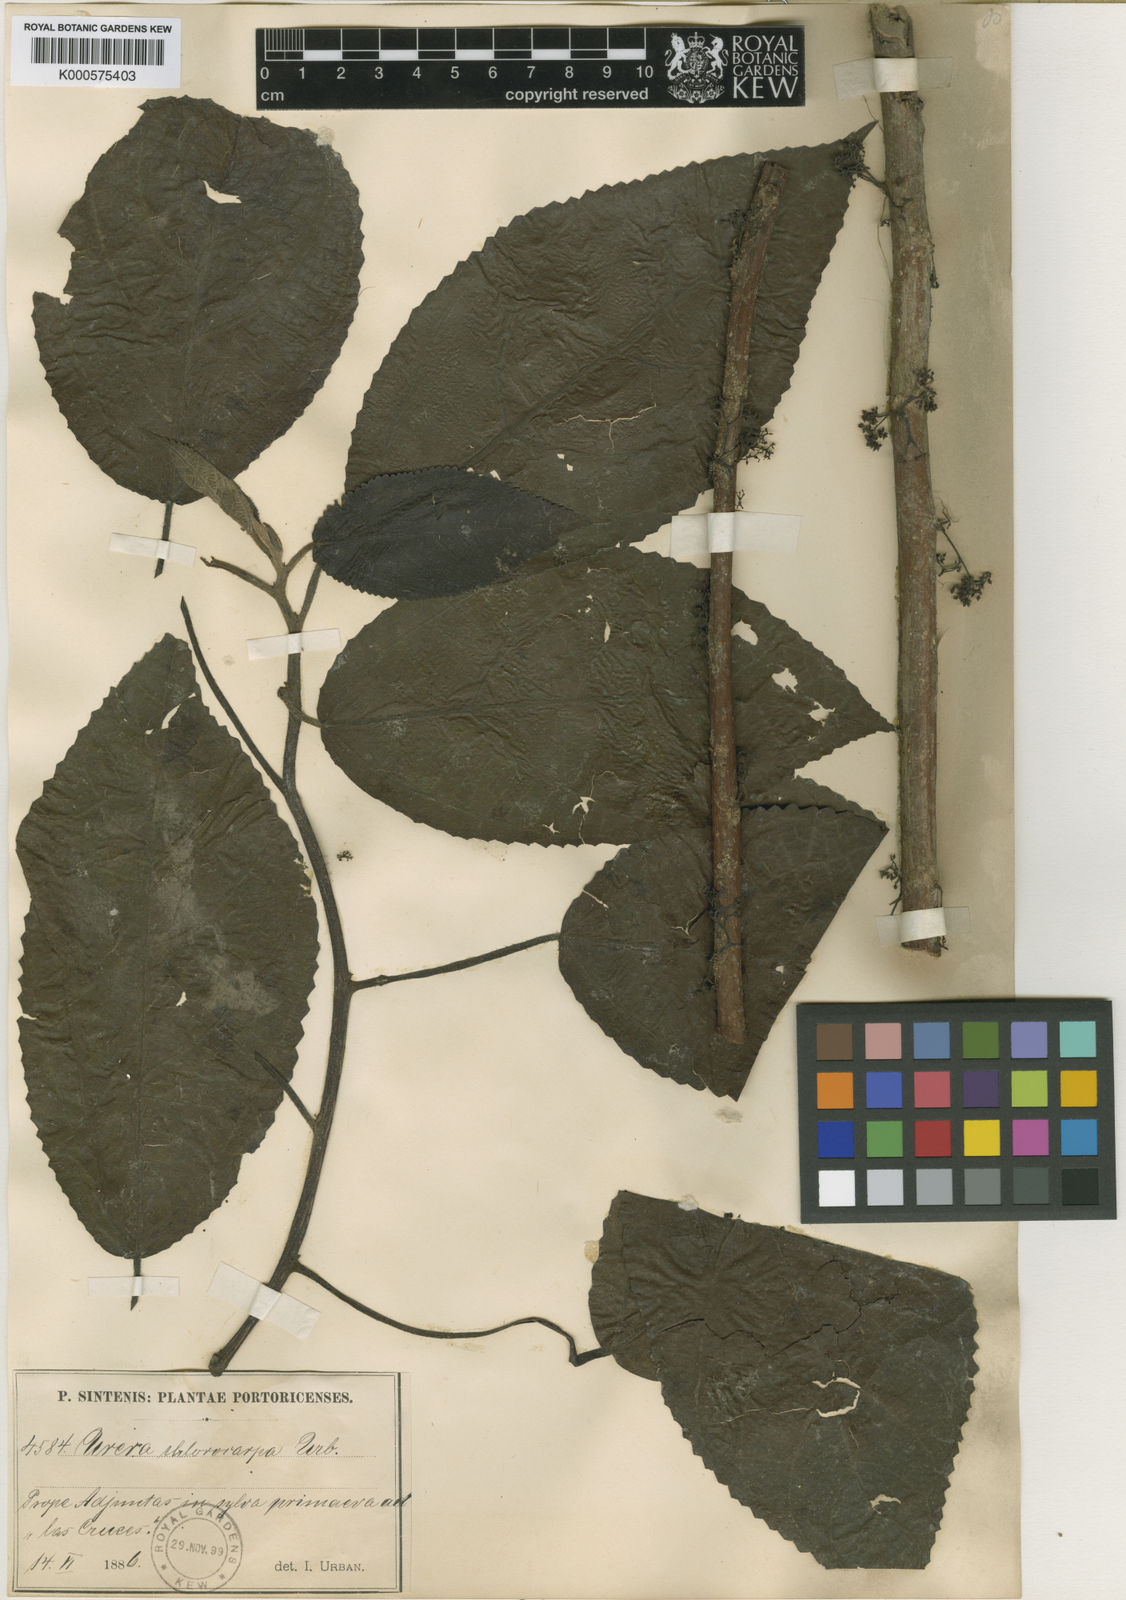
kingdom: Plantae
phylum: Tracheophyta
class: Magnoliopsida
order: Rosales
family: Urticaceae
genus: Urera
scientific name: Urera chlorocarpa
